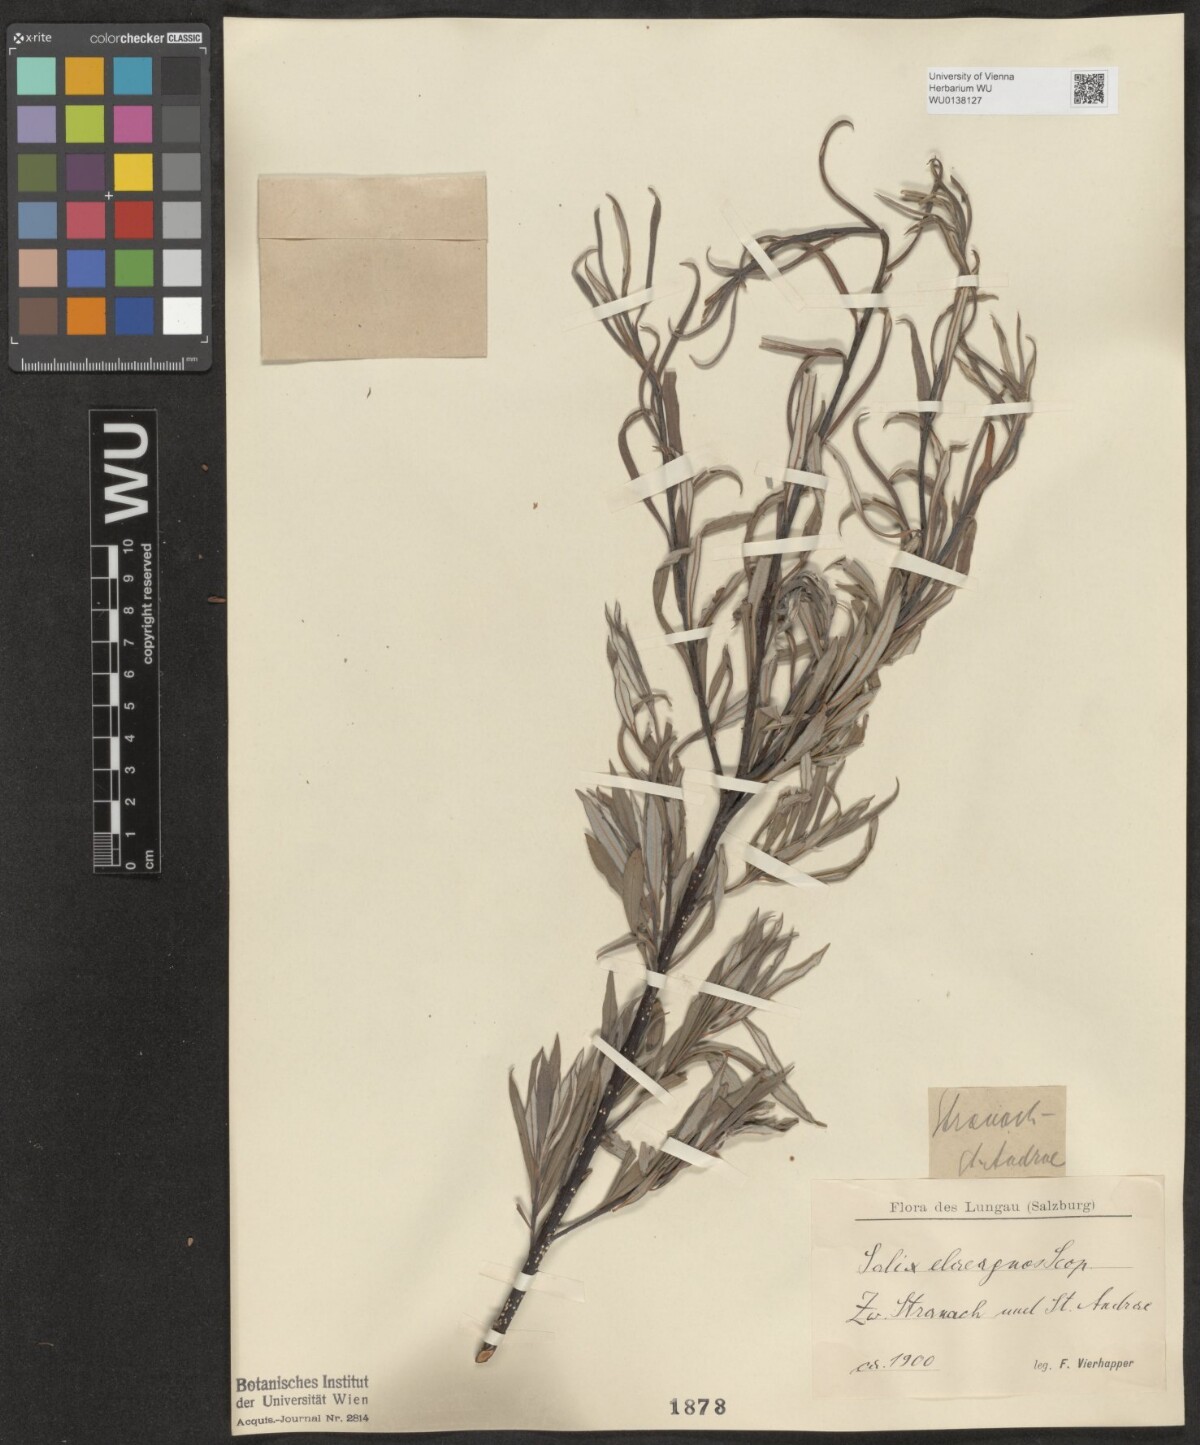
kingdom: Plantae
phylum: Tracheophyta
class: Magnoliopsida
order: Malpighiales
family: Salicaceae
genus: Salix
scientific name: Salix eleagnos
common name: Elaeagnus willow
